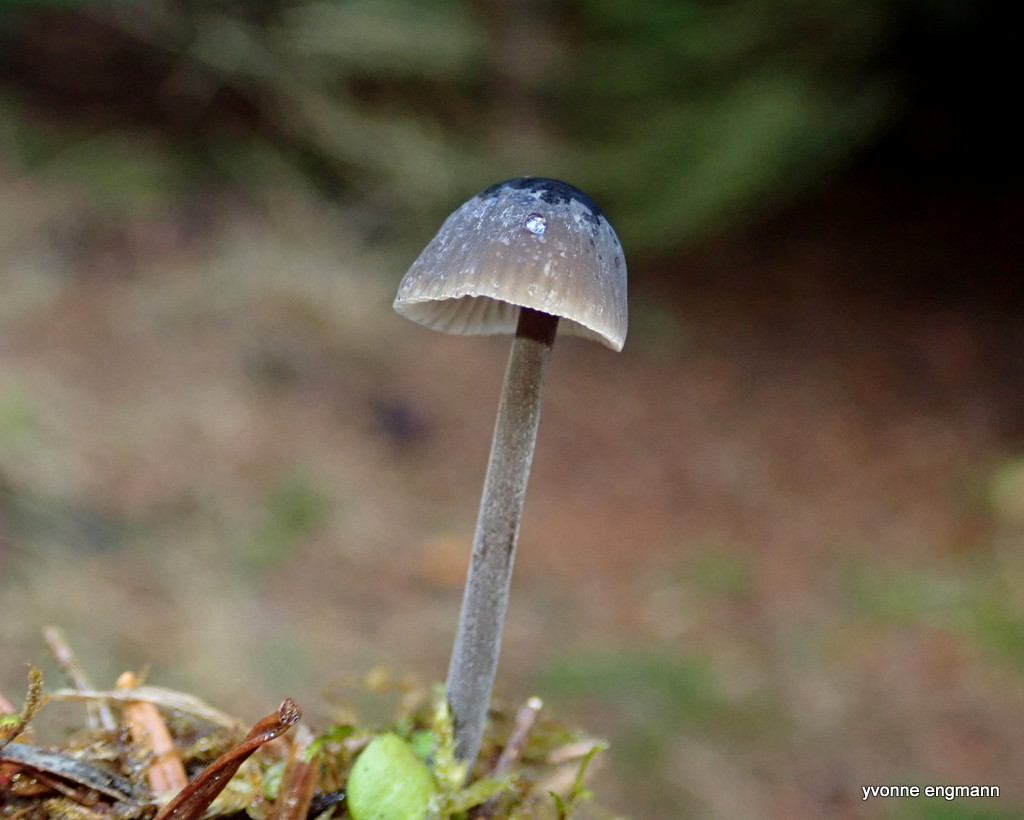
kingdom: Fungi
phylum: Basidiomycota
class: Agaricomycetes
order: Agaricales
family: Mycenaceae
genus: Mycena
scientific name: Mycena galopus
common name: hvidmælket huesvamp
